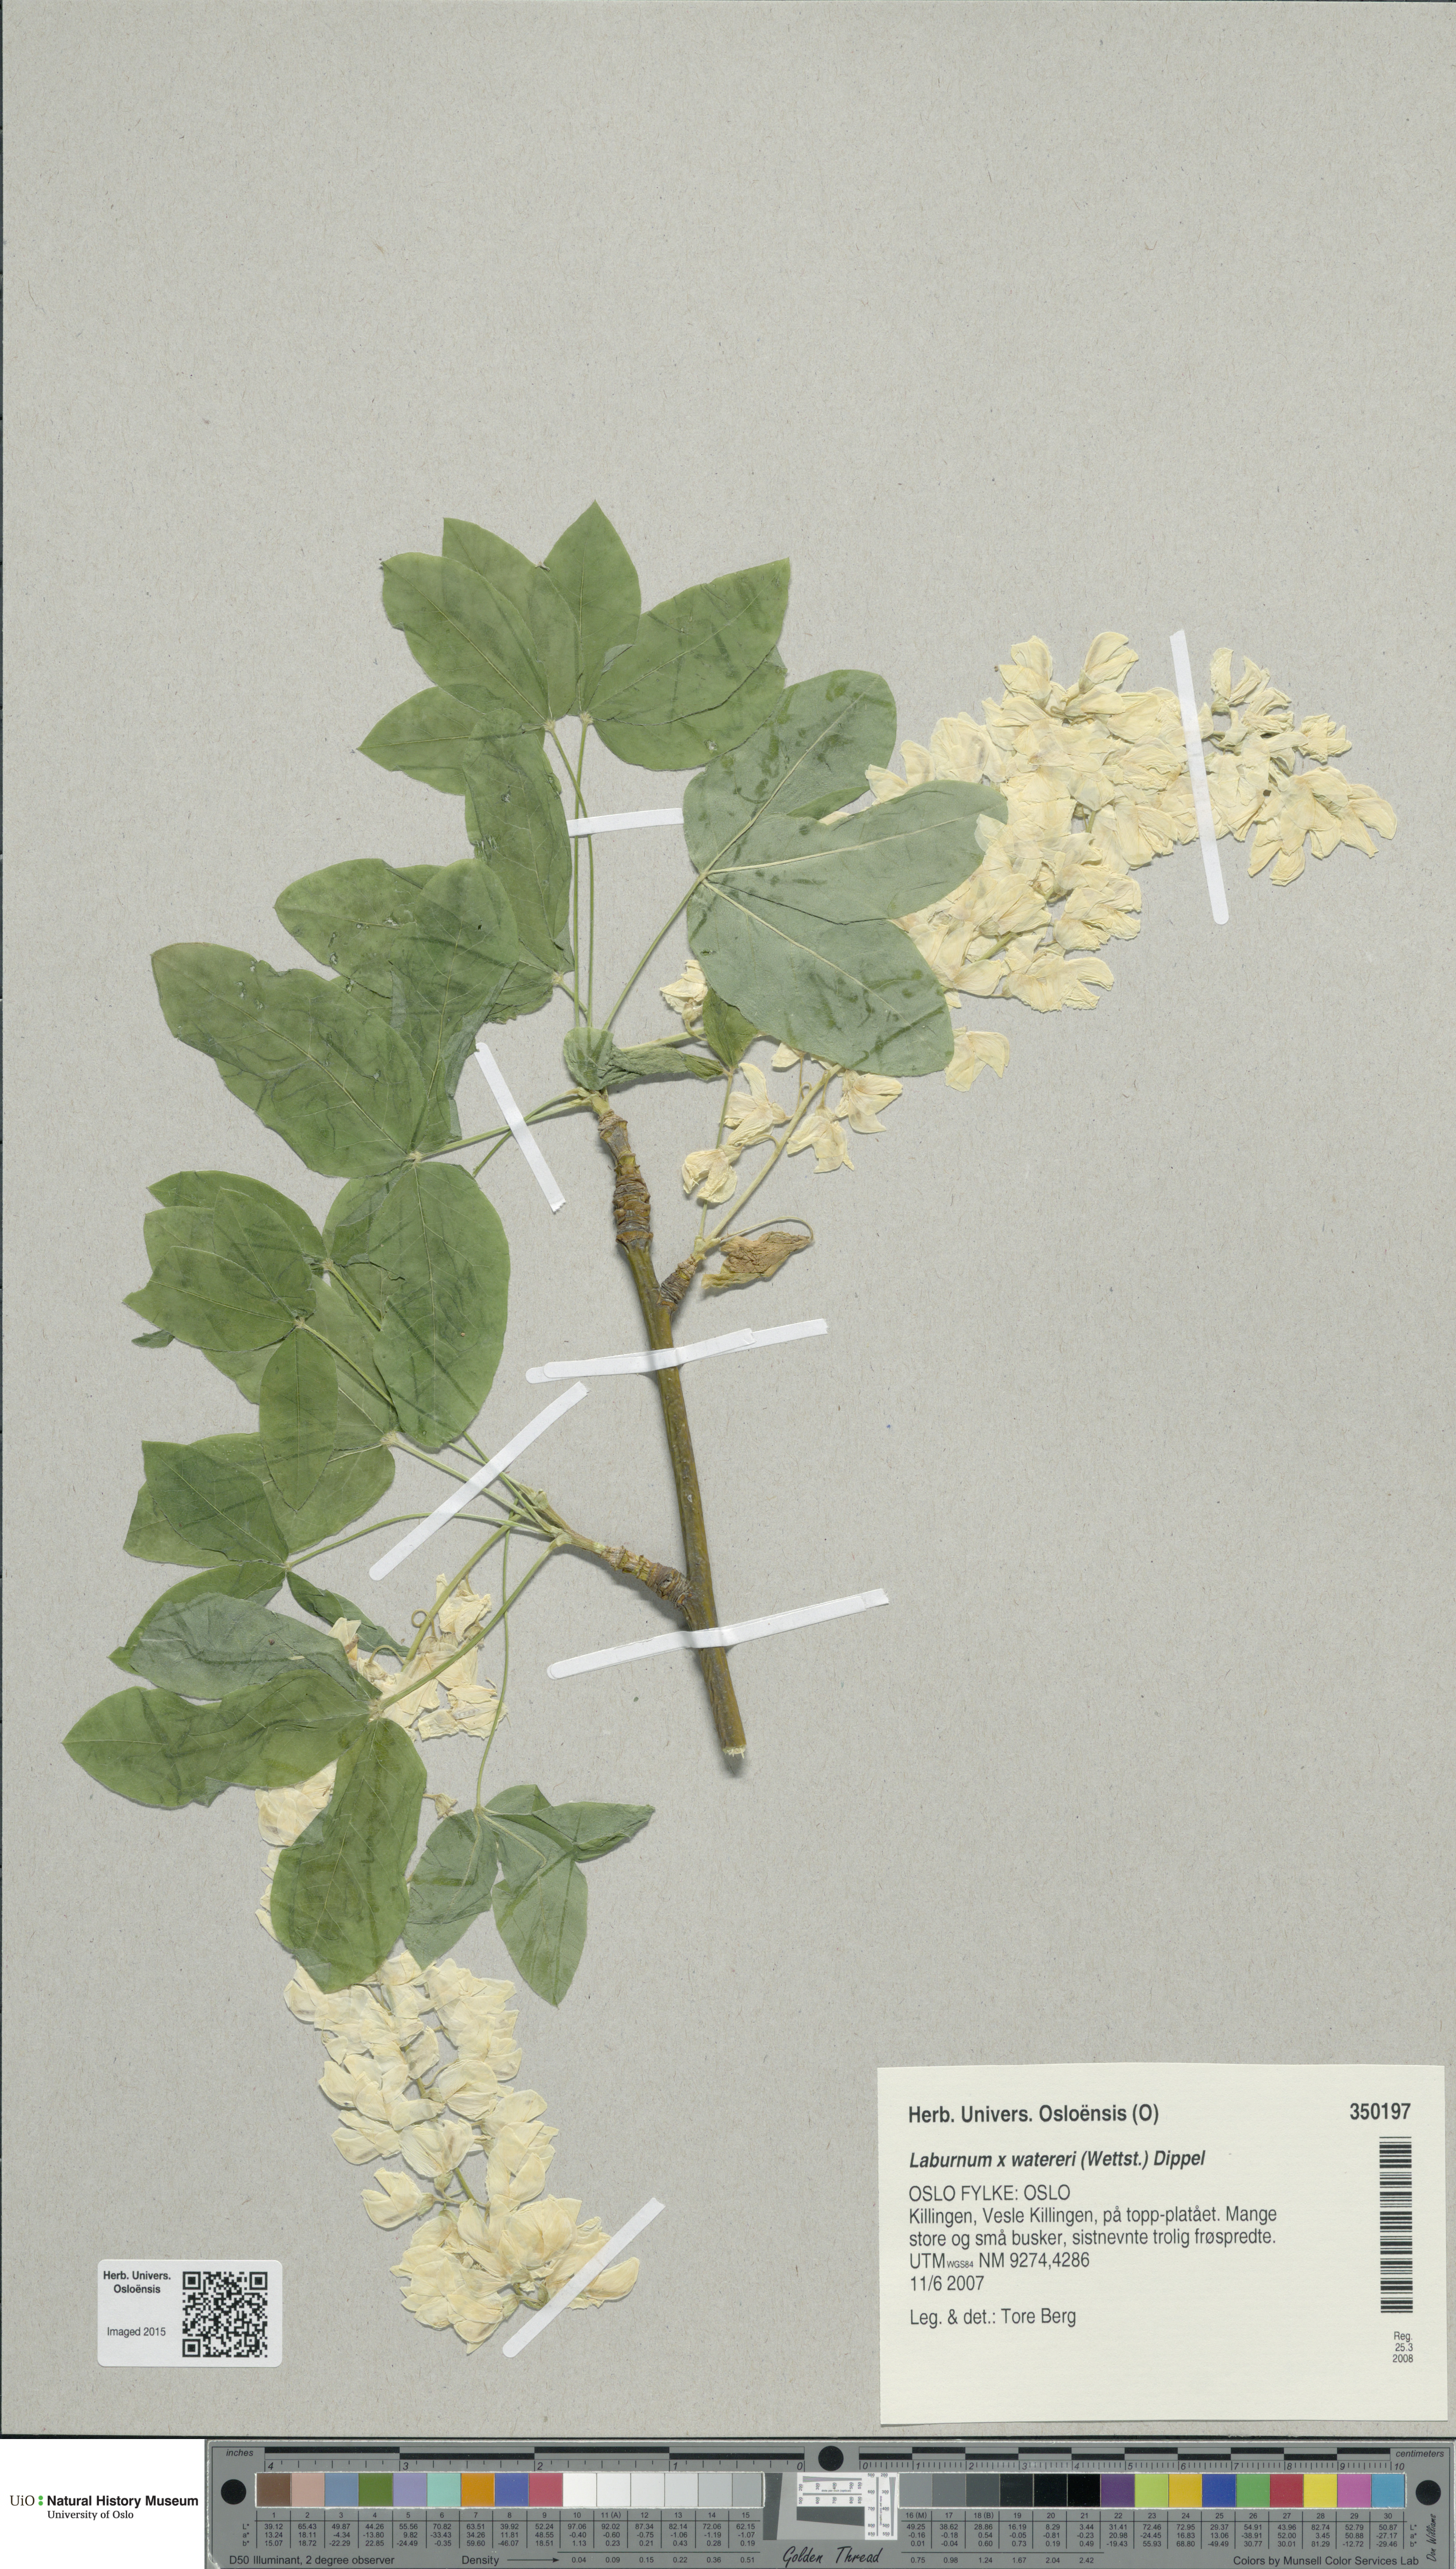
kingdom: Plantae
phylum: Tracheophyta
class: Magnoliopsida
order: Fabales
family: Fabaceae
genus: Laburnum
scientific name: Laburnum watereri
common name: Golden chain tree
